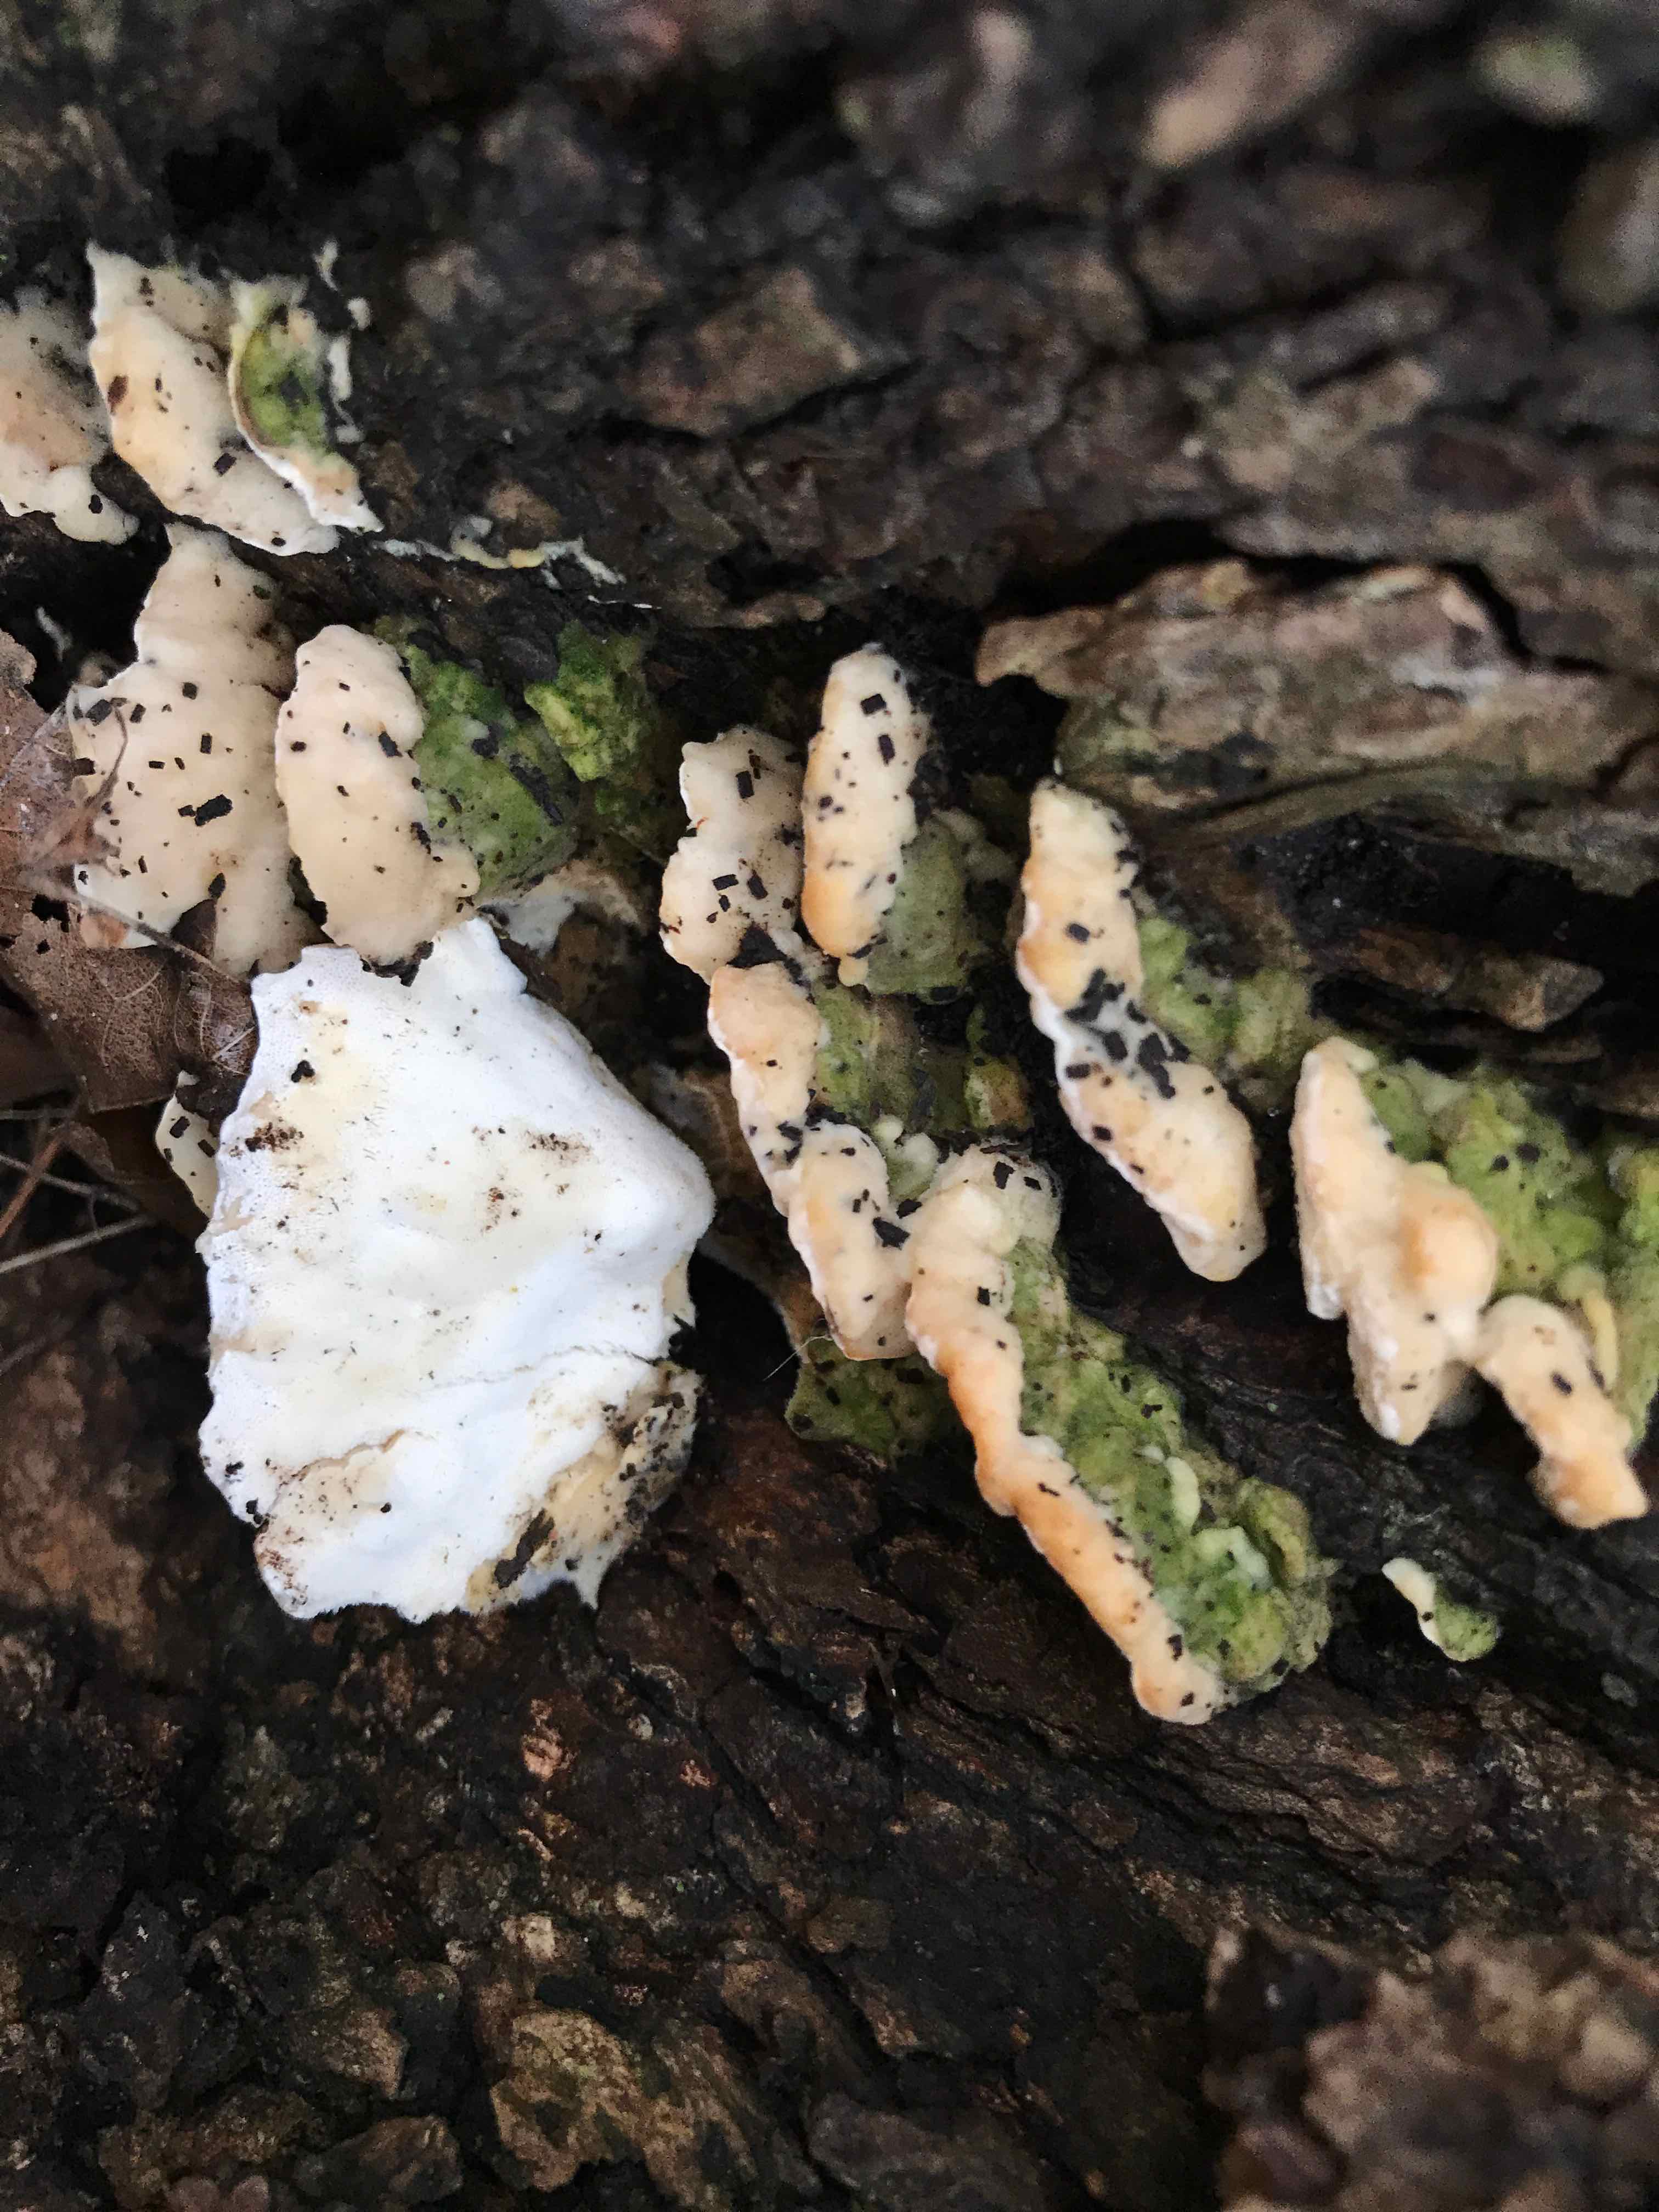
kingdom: Fungi
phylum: Basidiomycota
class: Agaricomycetes
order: Hymenochaetales
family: Oxyporaceae
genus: Oxyporus
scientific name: Oxyporus populinus
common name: sammenvokset trylleporesvamp
